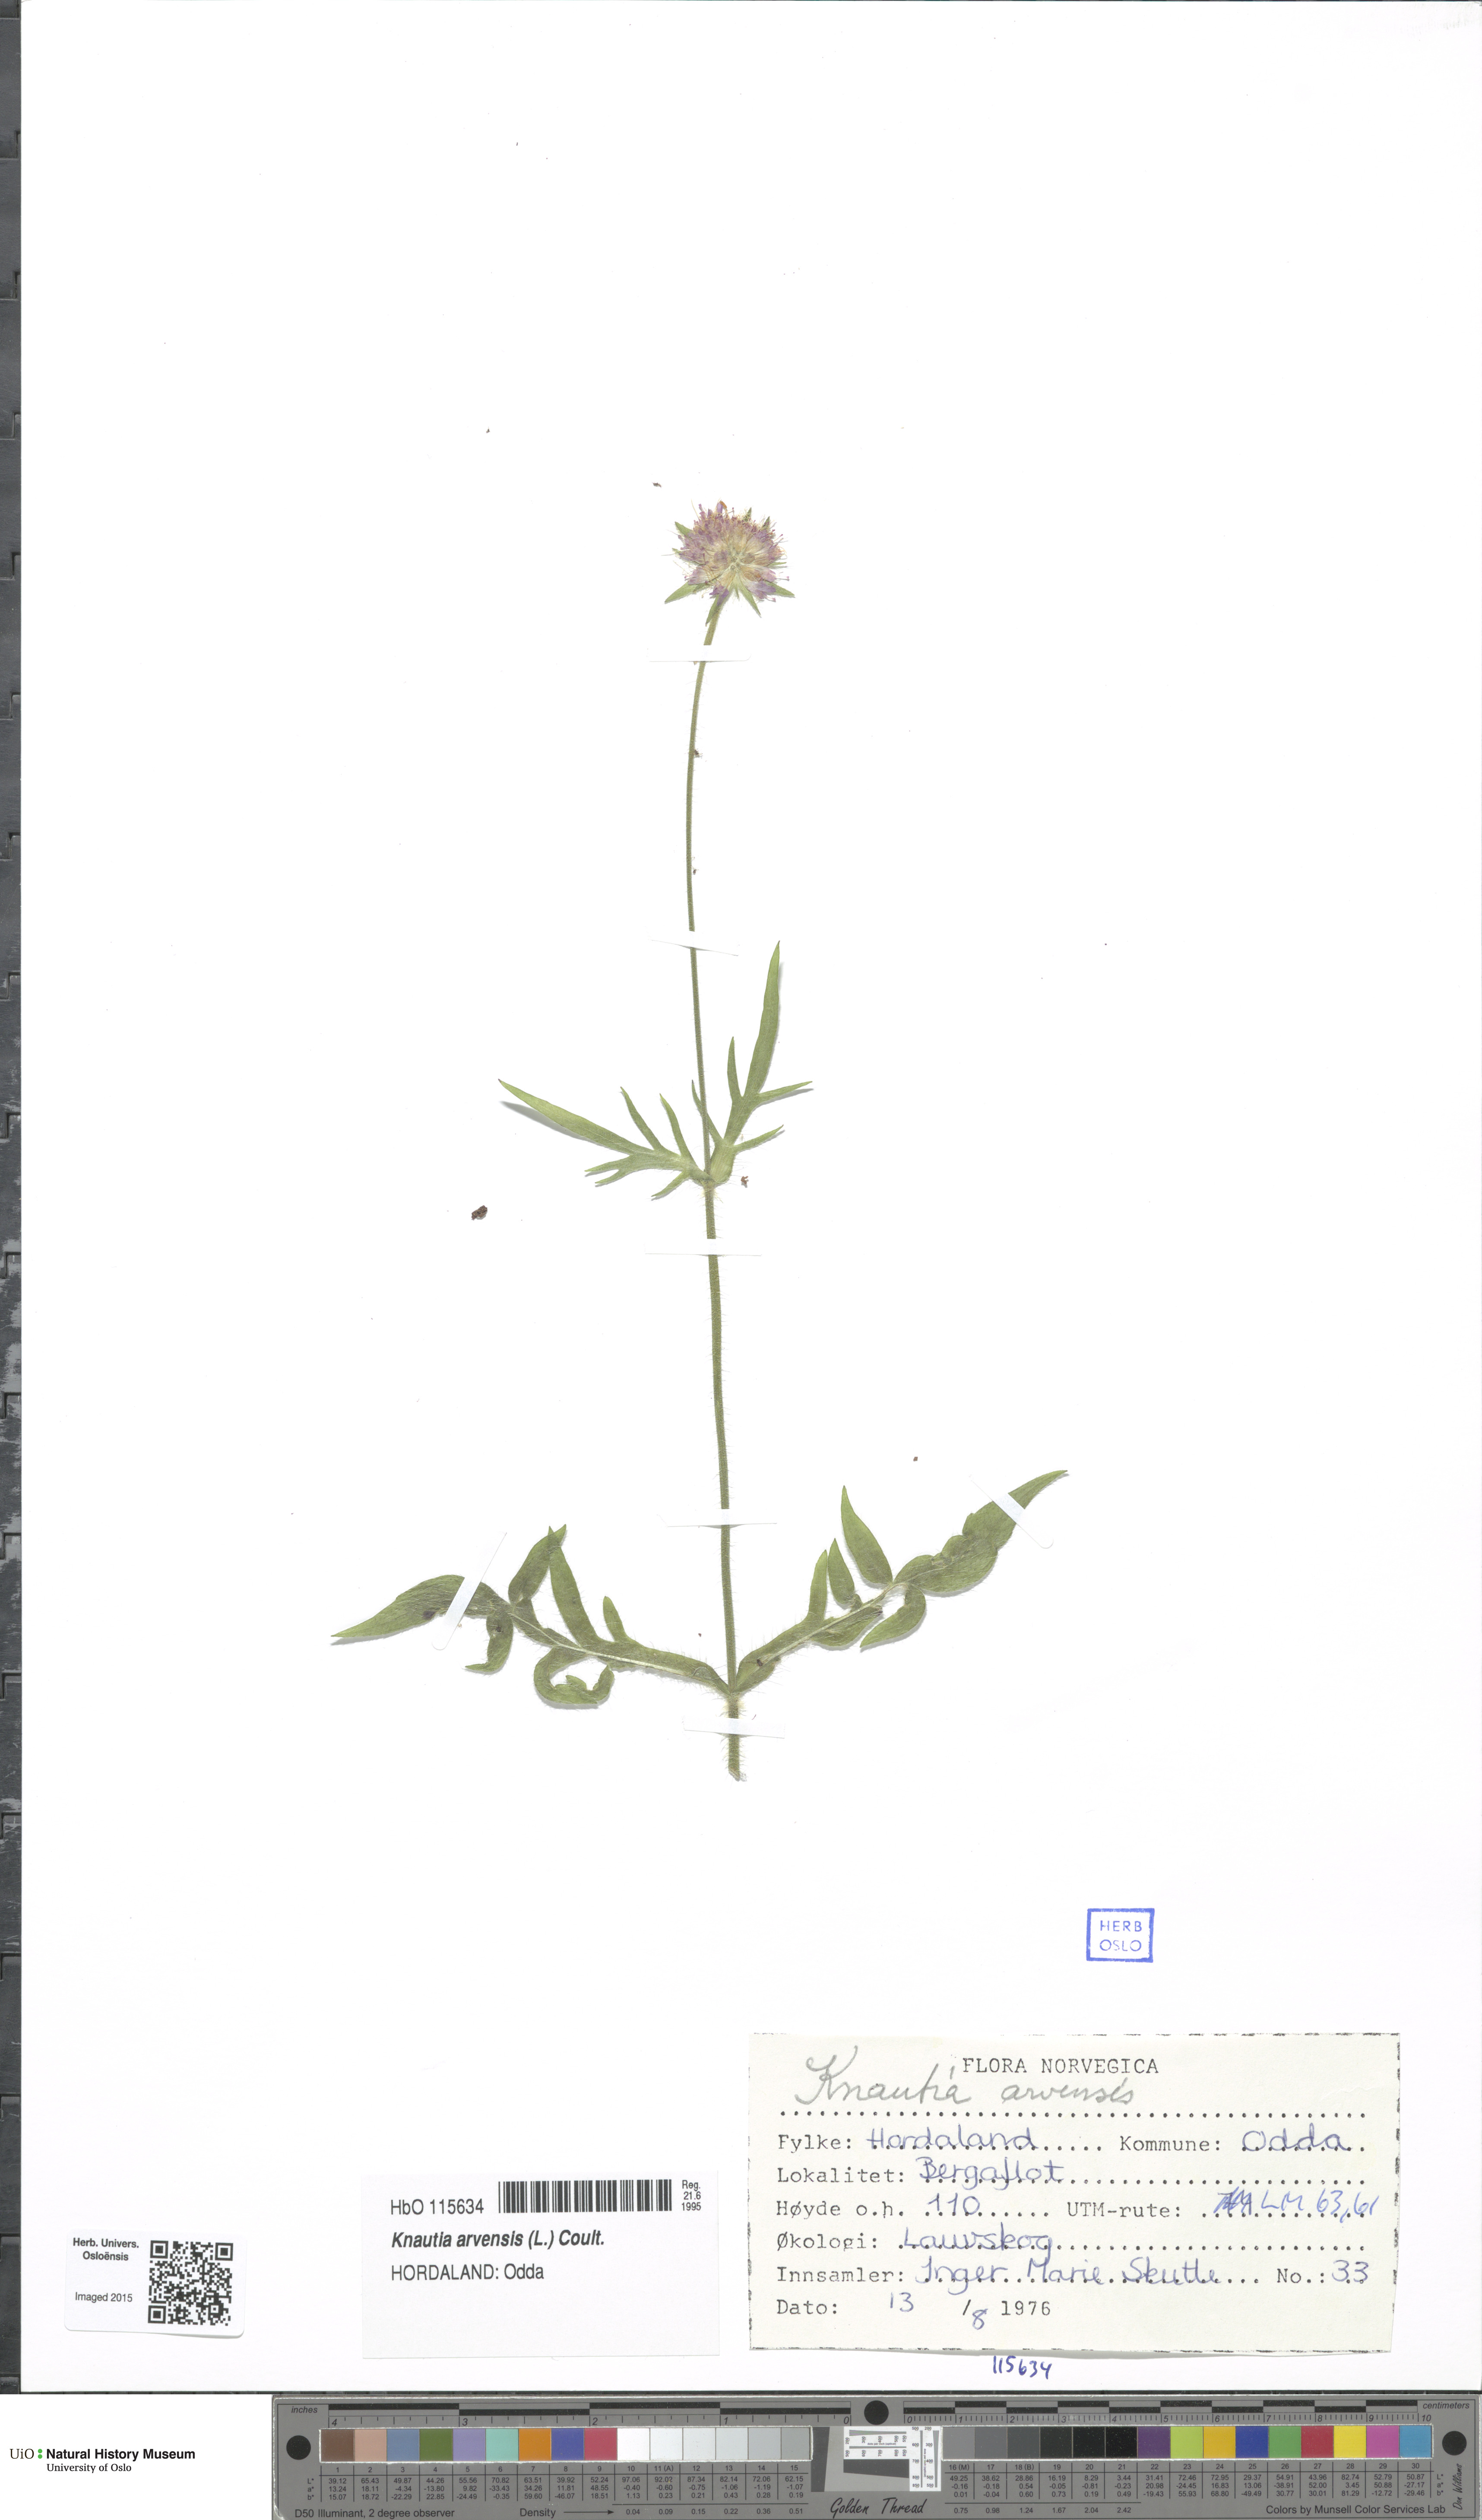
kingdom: Plantae
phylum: Tracheophyta
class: Magnoliopsida
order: Dipsacales
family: Caprifoliaceae
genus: Knautia
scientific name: Knautia arvensis
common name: Field scabiosa
